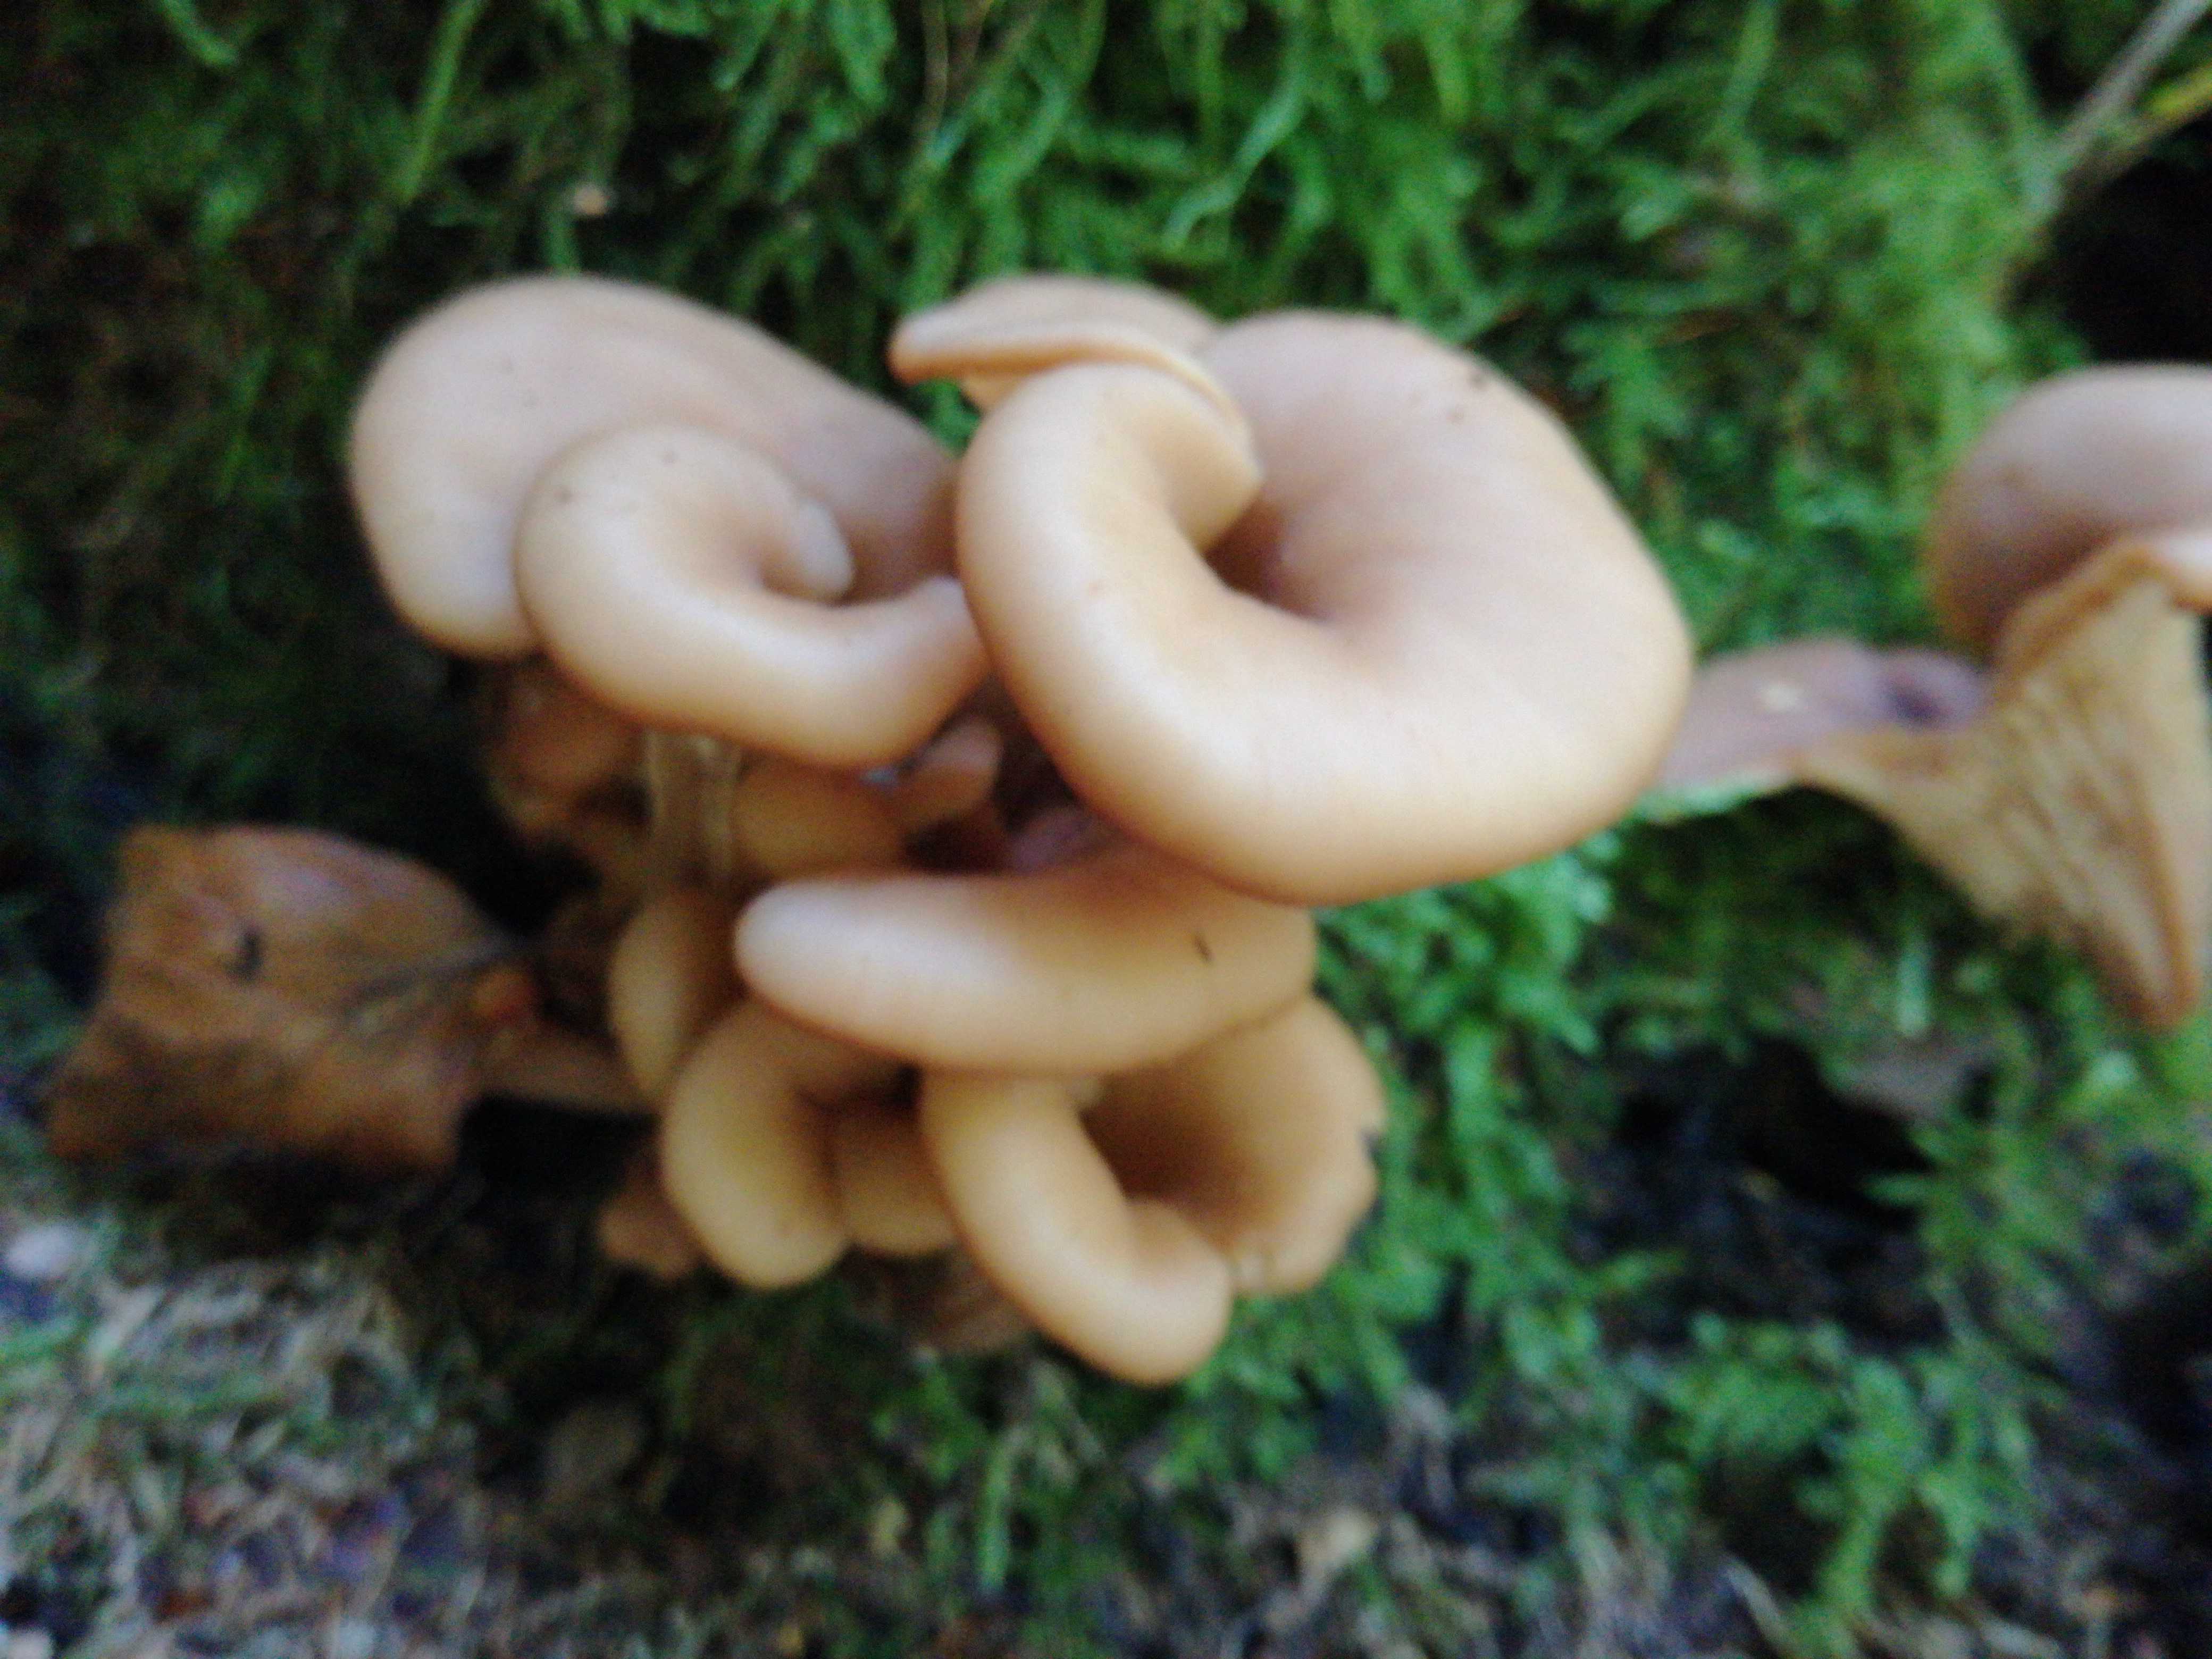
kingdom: Fungi
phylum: Basidiomycota
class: Agaricomycetes
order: Russulales
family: Auriscalpiaceae
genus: Lentinellus
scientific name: Lentinellus cochleatus
